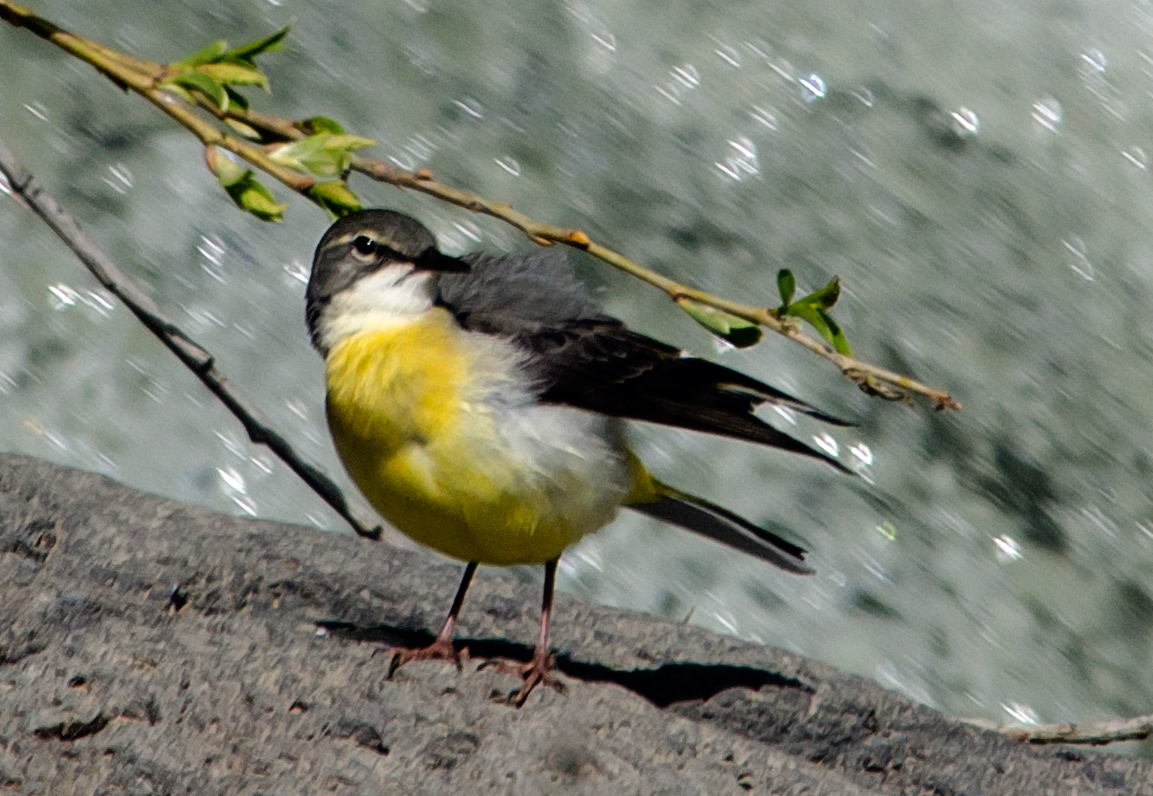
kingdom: Animalia
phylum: Chordata
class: Aves
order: Passeriformes
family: Motacillidae
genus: Motacilla
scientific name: Motacilla cinerea
